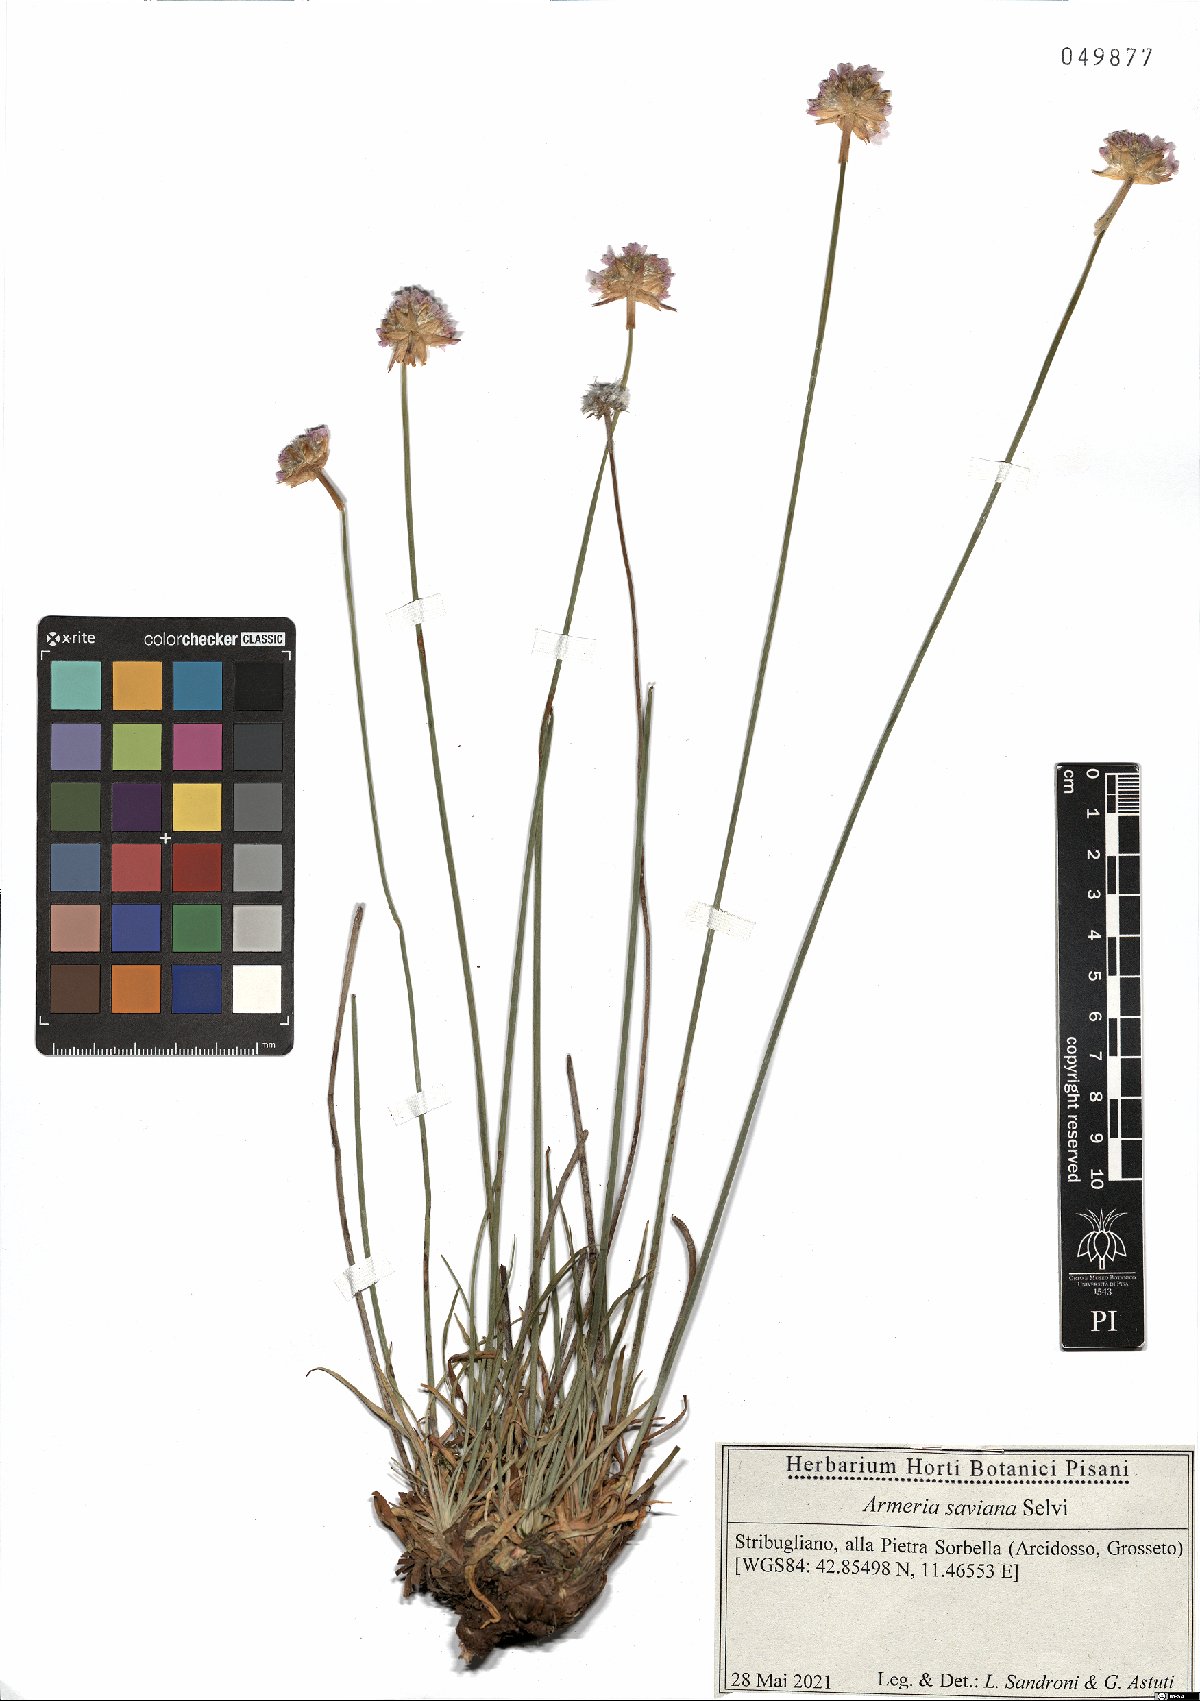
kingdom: Plantae
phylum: Tracheophyta
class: Magnoliopsida
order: Caryophyllales
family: Plumbaginaceae
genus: Armeria
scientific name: Armeria saviana
